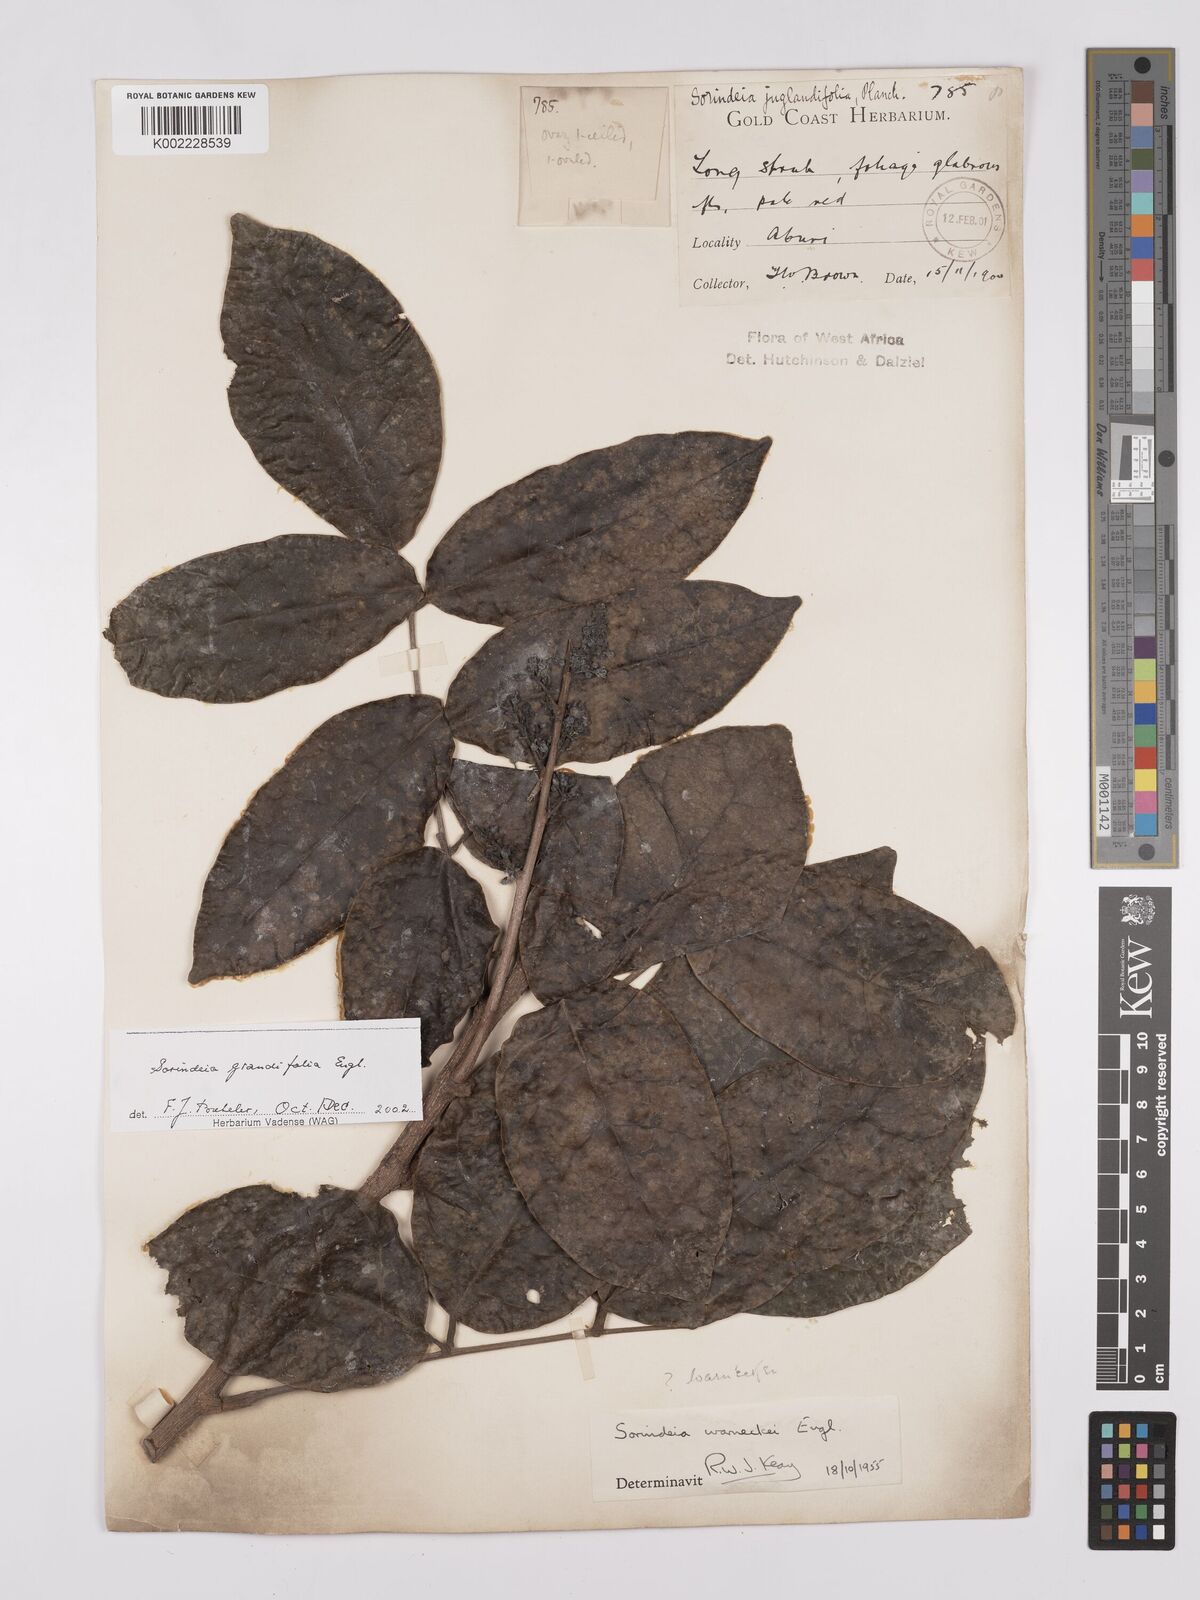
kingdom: Plantae
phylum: Tracheophyta
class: Magnoliopsida
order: Sapindales
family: Anacardiaceae
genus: Sorindeia
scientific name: Sorindeia grandifolia
